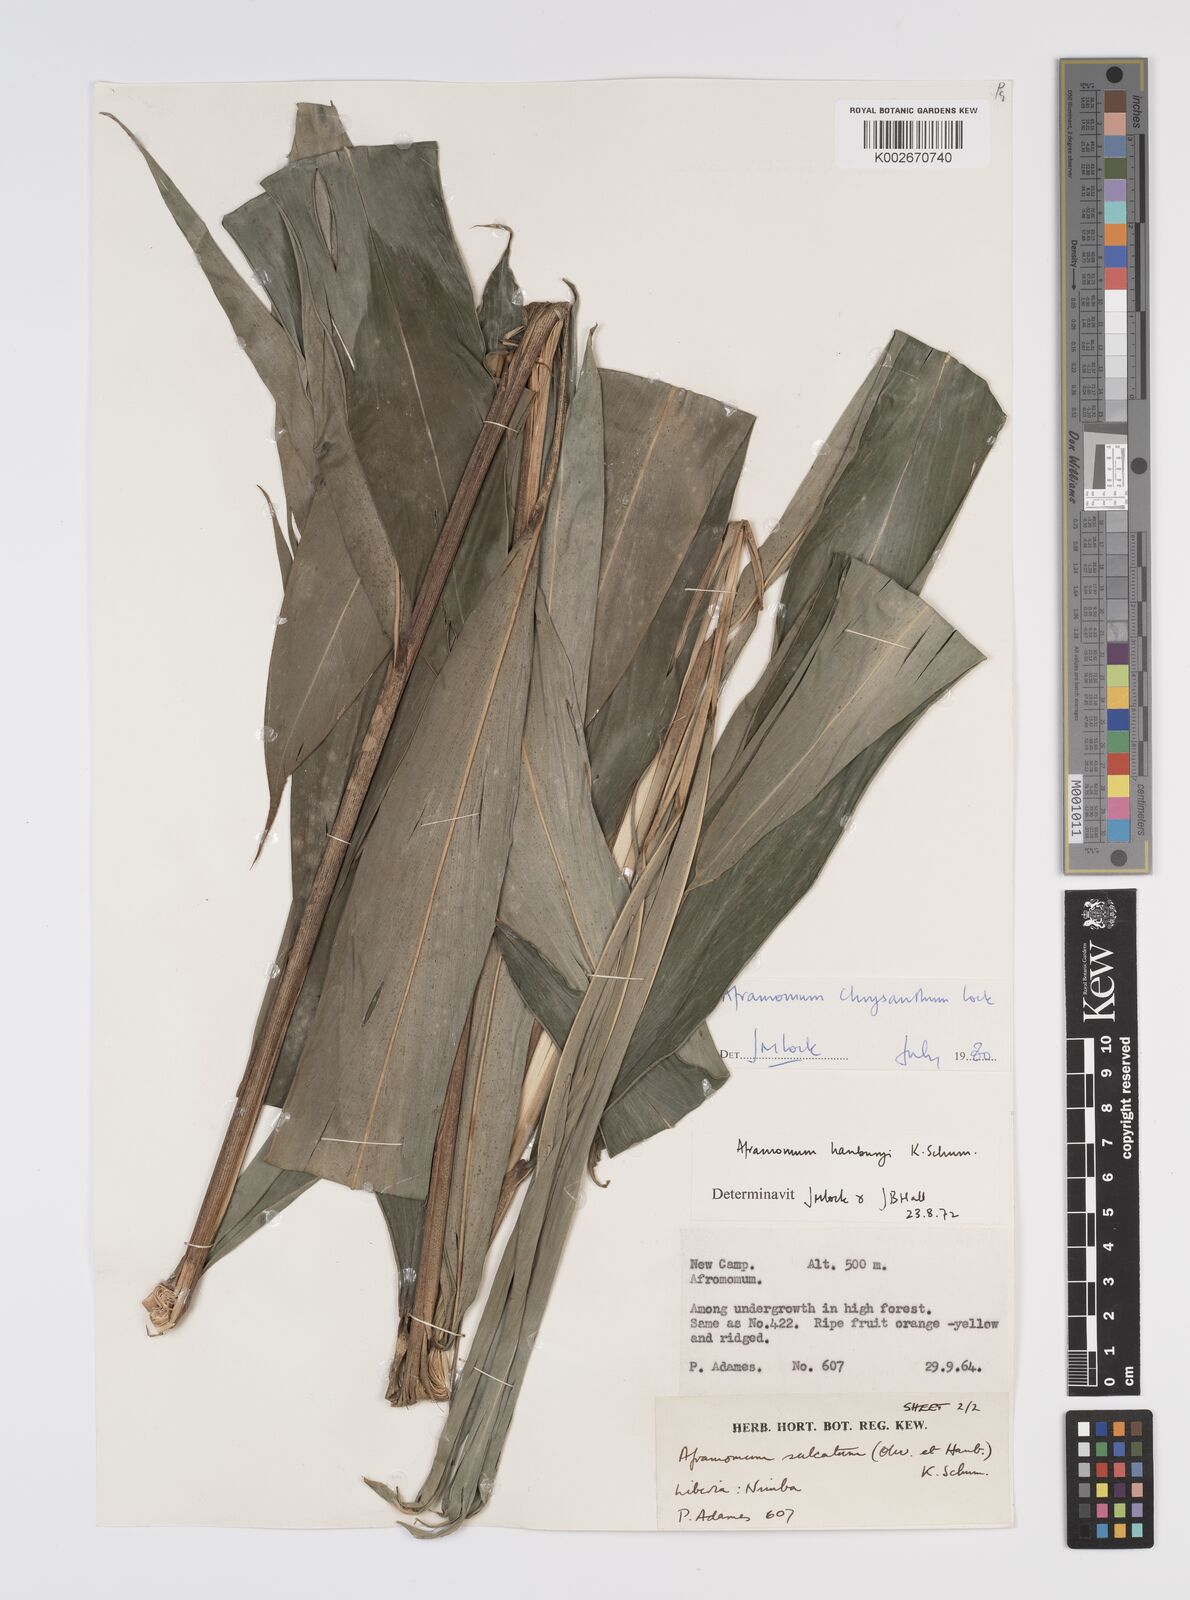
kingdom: Plantae
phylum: Tracheophyta
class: Liliopsida
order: Zingiberales
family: Zingiberaceae
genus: Aframomum
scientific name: Aframomum chrysanthum
